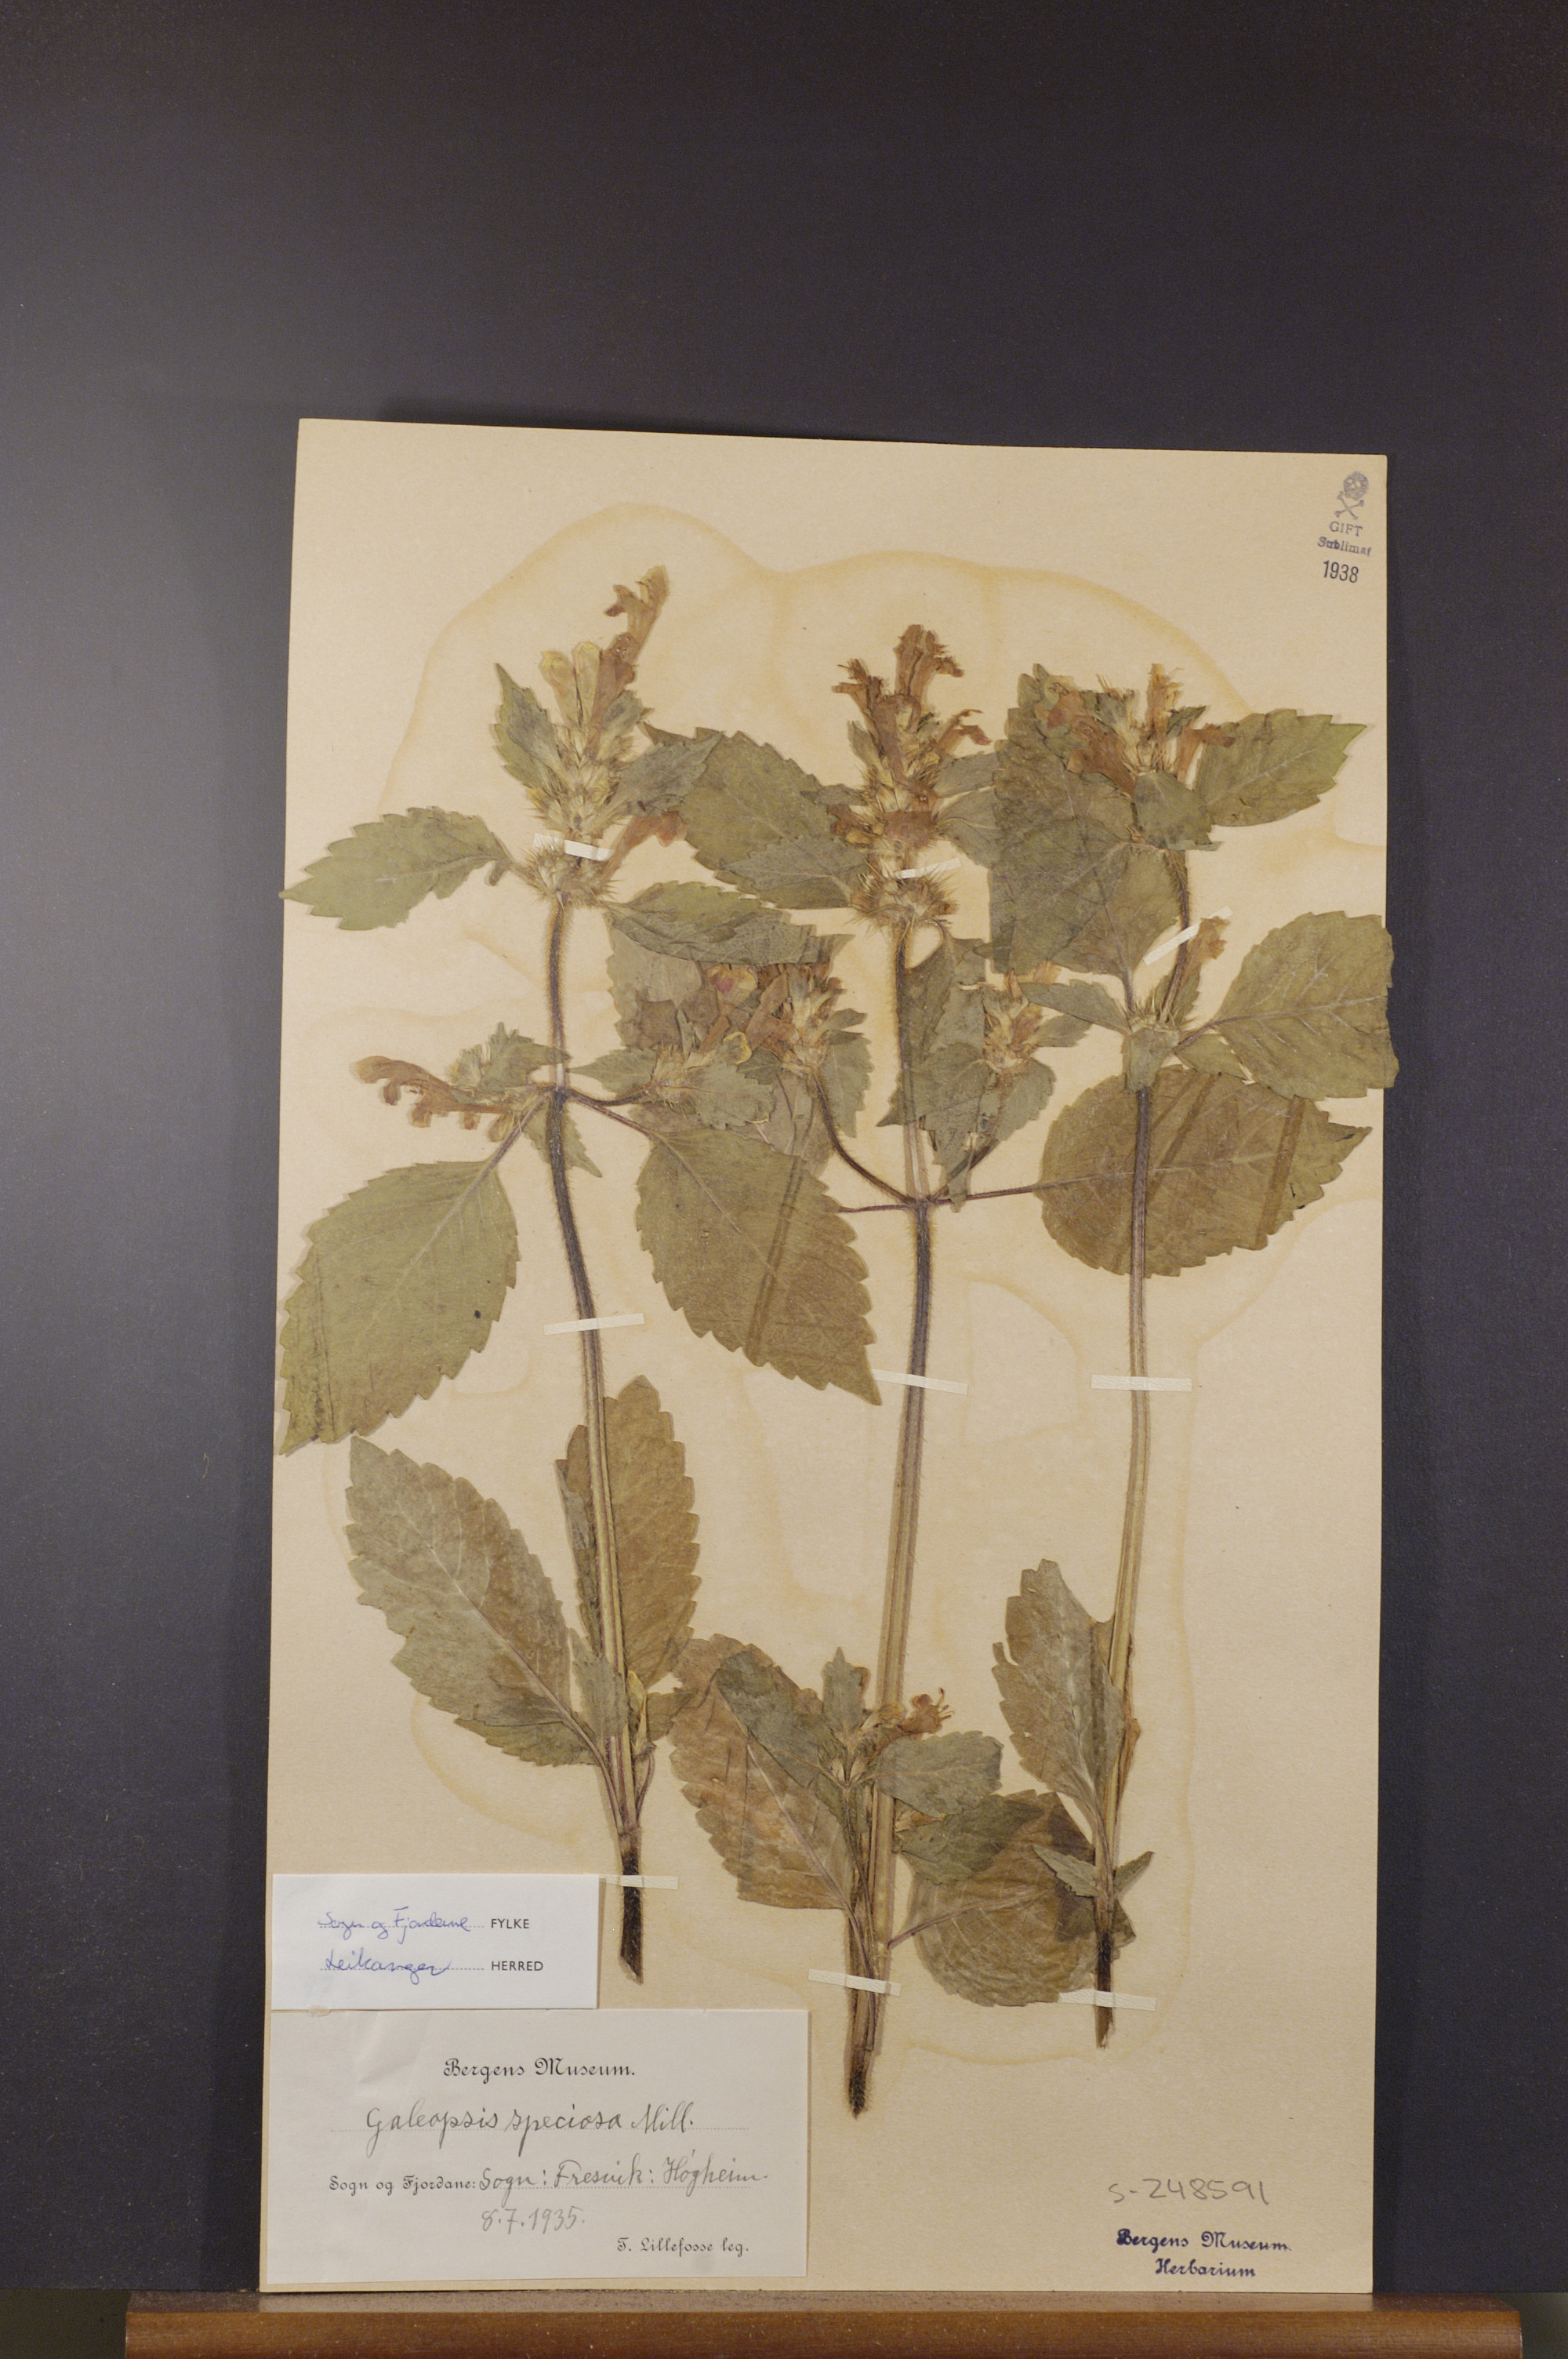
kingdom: Plantae
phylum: Tracheophyta
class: Magnoliopsida
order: Lamiales
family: Lamiaceae
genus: Galeopsis
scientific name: Galeopsis speciosa
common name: Large-flowered hemp-nettle
